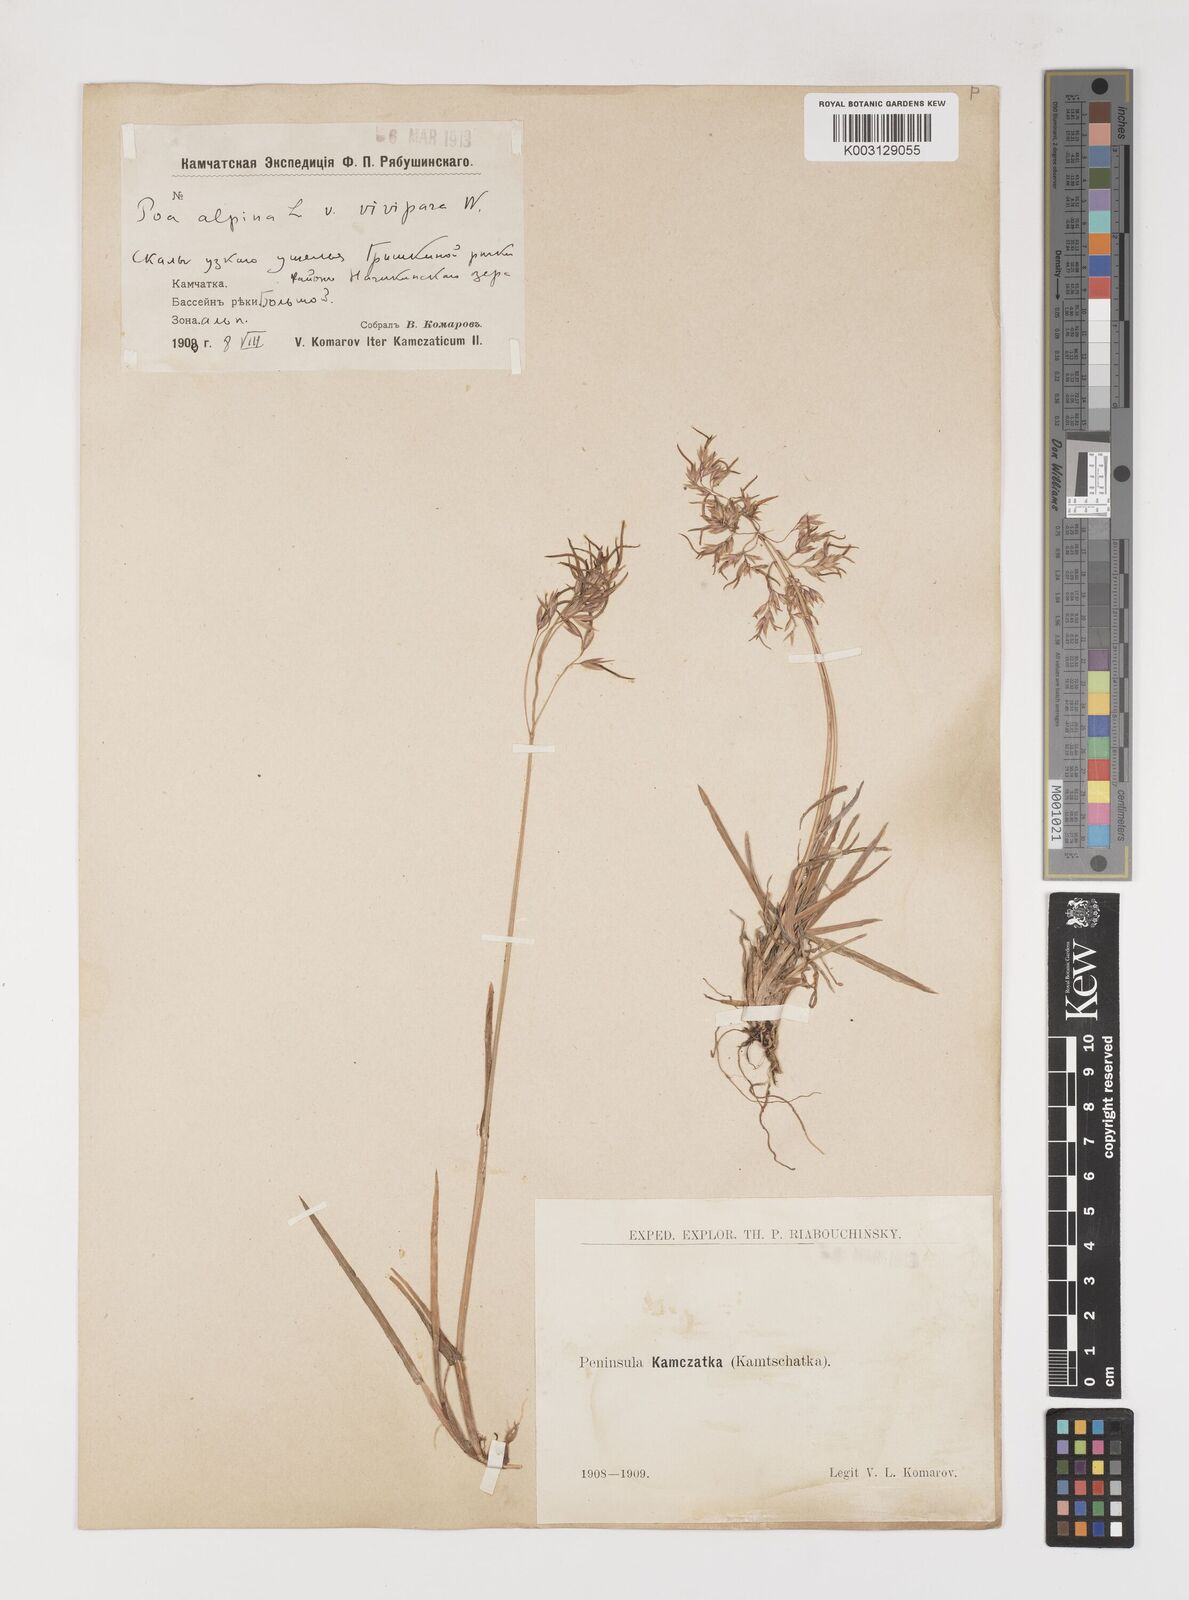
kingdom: Plantae
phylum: Tracheophyta
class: Liliopsida
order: Poales
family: Poaceae
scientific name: Poaceae
